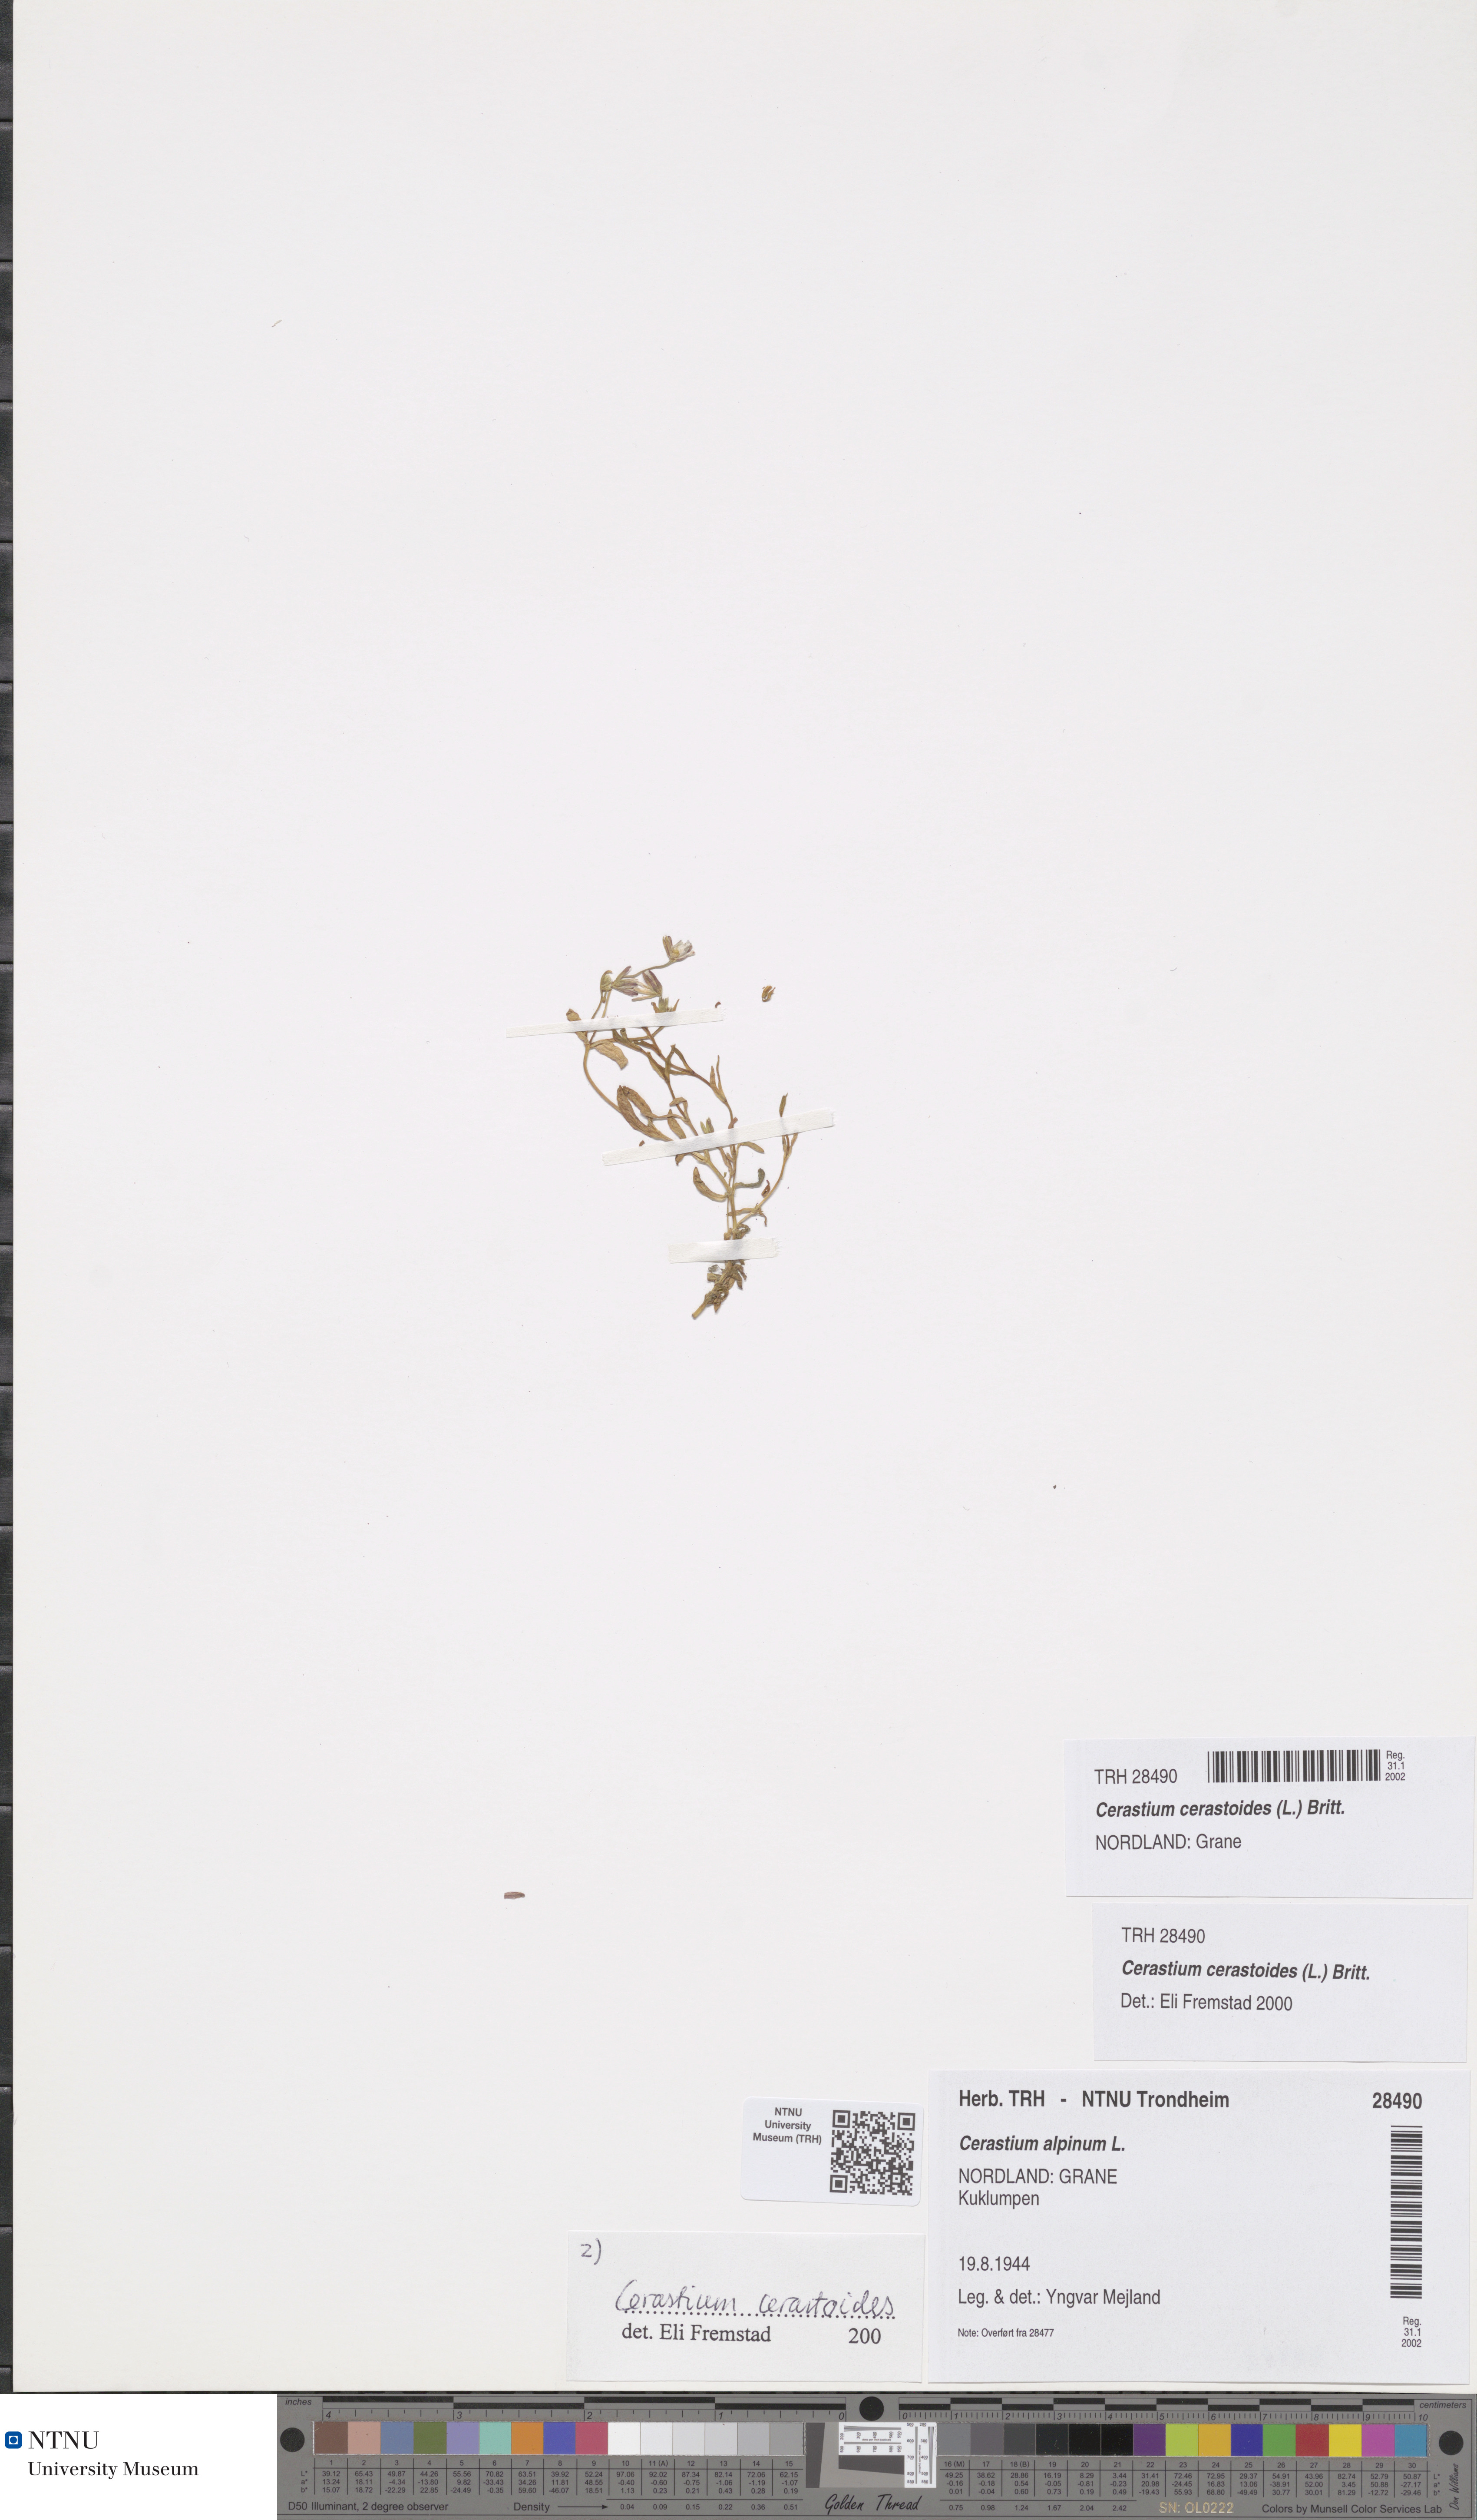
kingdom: Plantae
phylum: Tracheophyta
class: Magnoliopsida
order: Caryophyllales
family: Caryophyllaceae
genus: Dichodon
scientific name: Dichodon cerastoides
